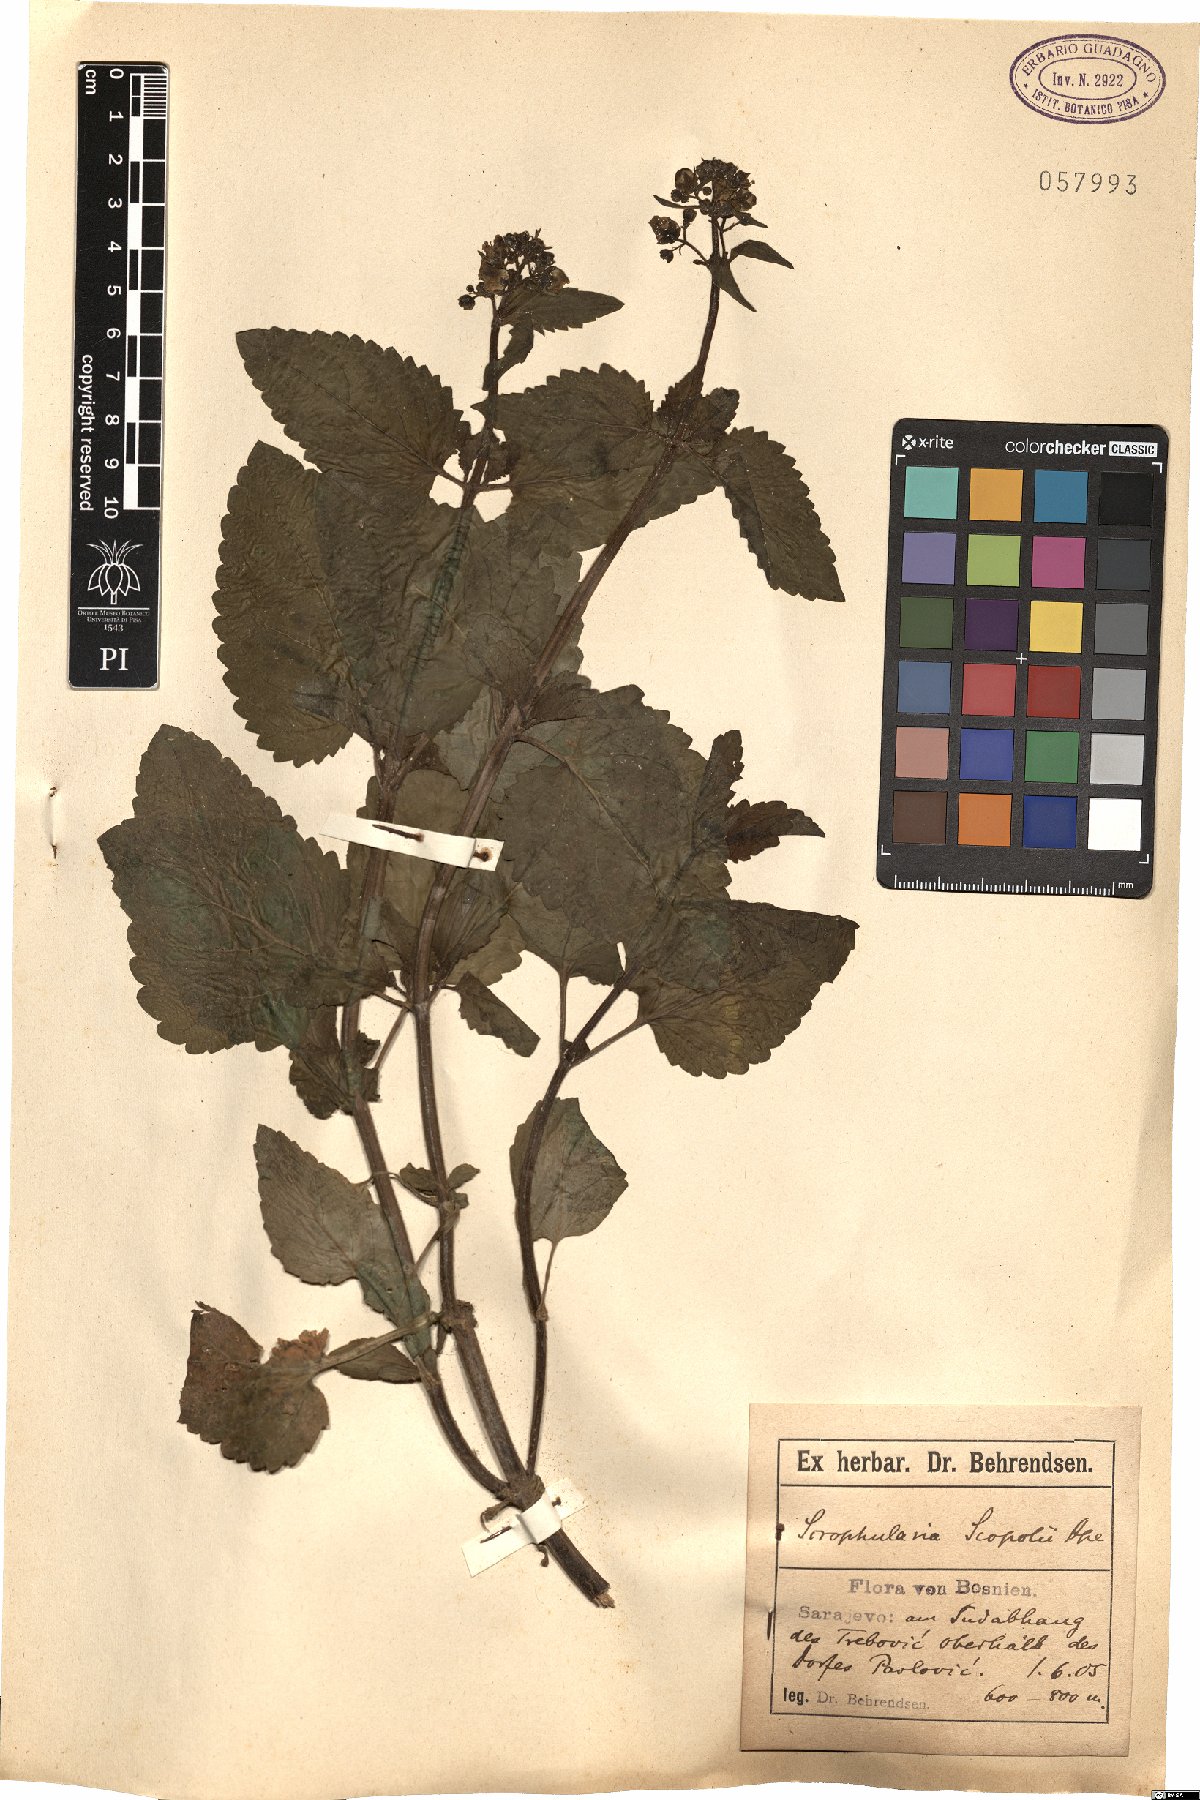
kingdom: Plantae
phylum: Tracheophyta
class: Magnoliopsida
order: Lamiales
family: Scrophulariaceae
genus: Scrophularia
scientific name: Scrophularia scopolii
